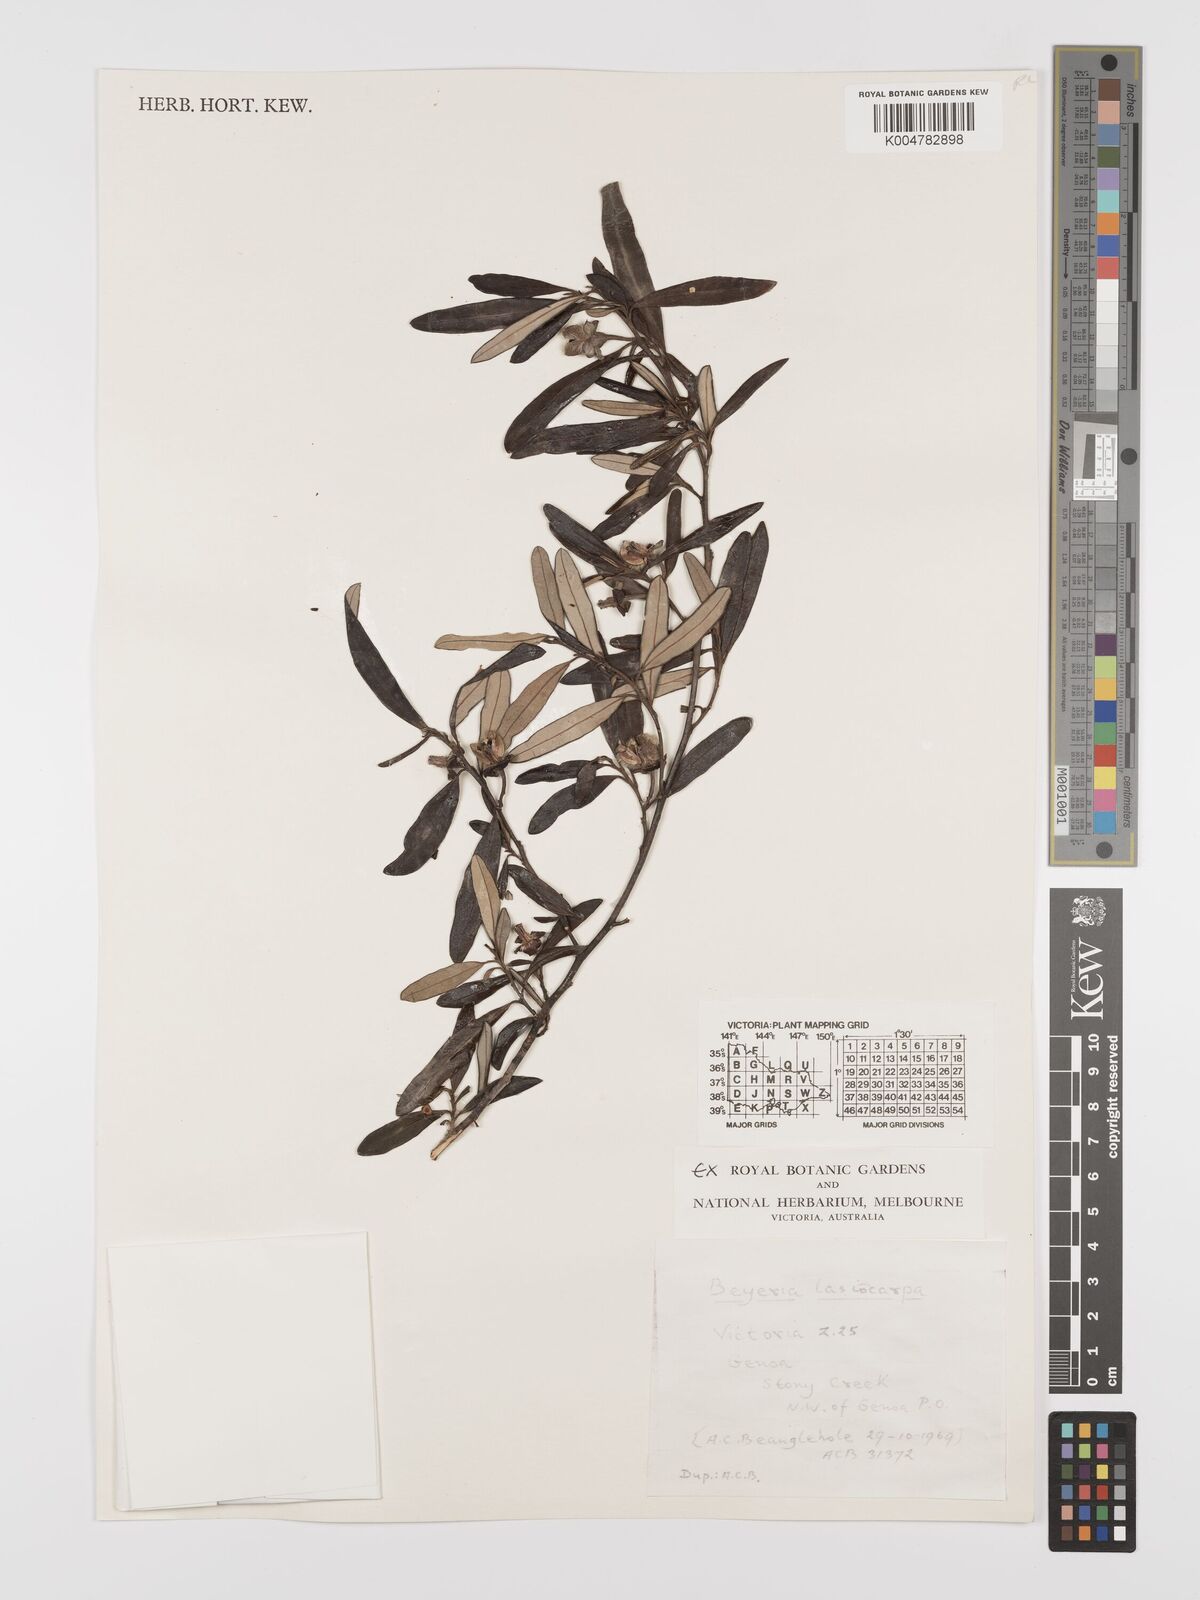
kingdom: Plantae
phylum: Tracheophyta
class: Magnoliopsida
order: Malpighiales
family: Euphorbiaceae
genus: Beyeria
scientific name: Beyeria lasiocarpa
